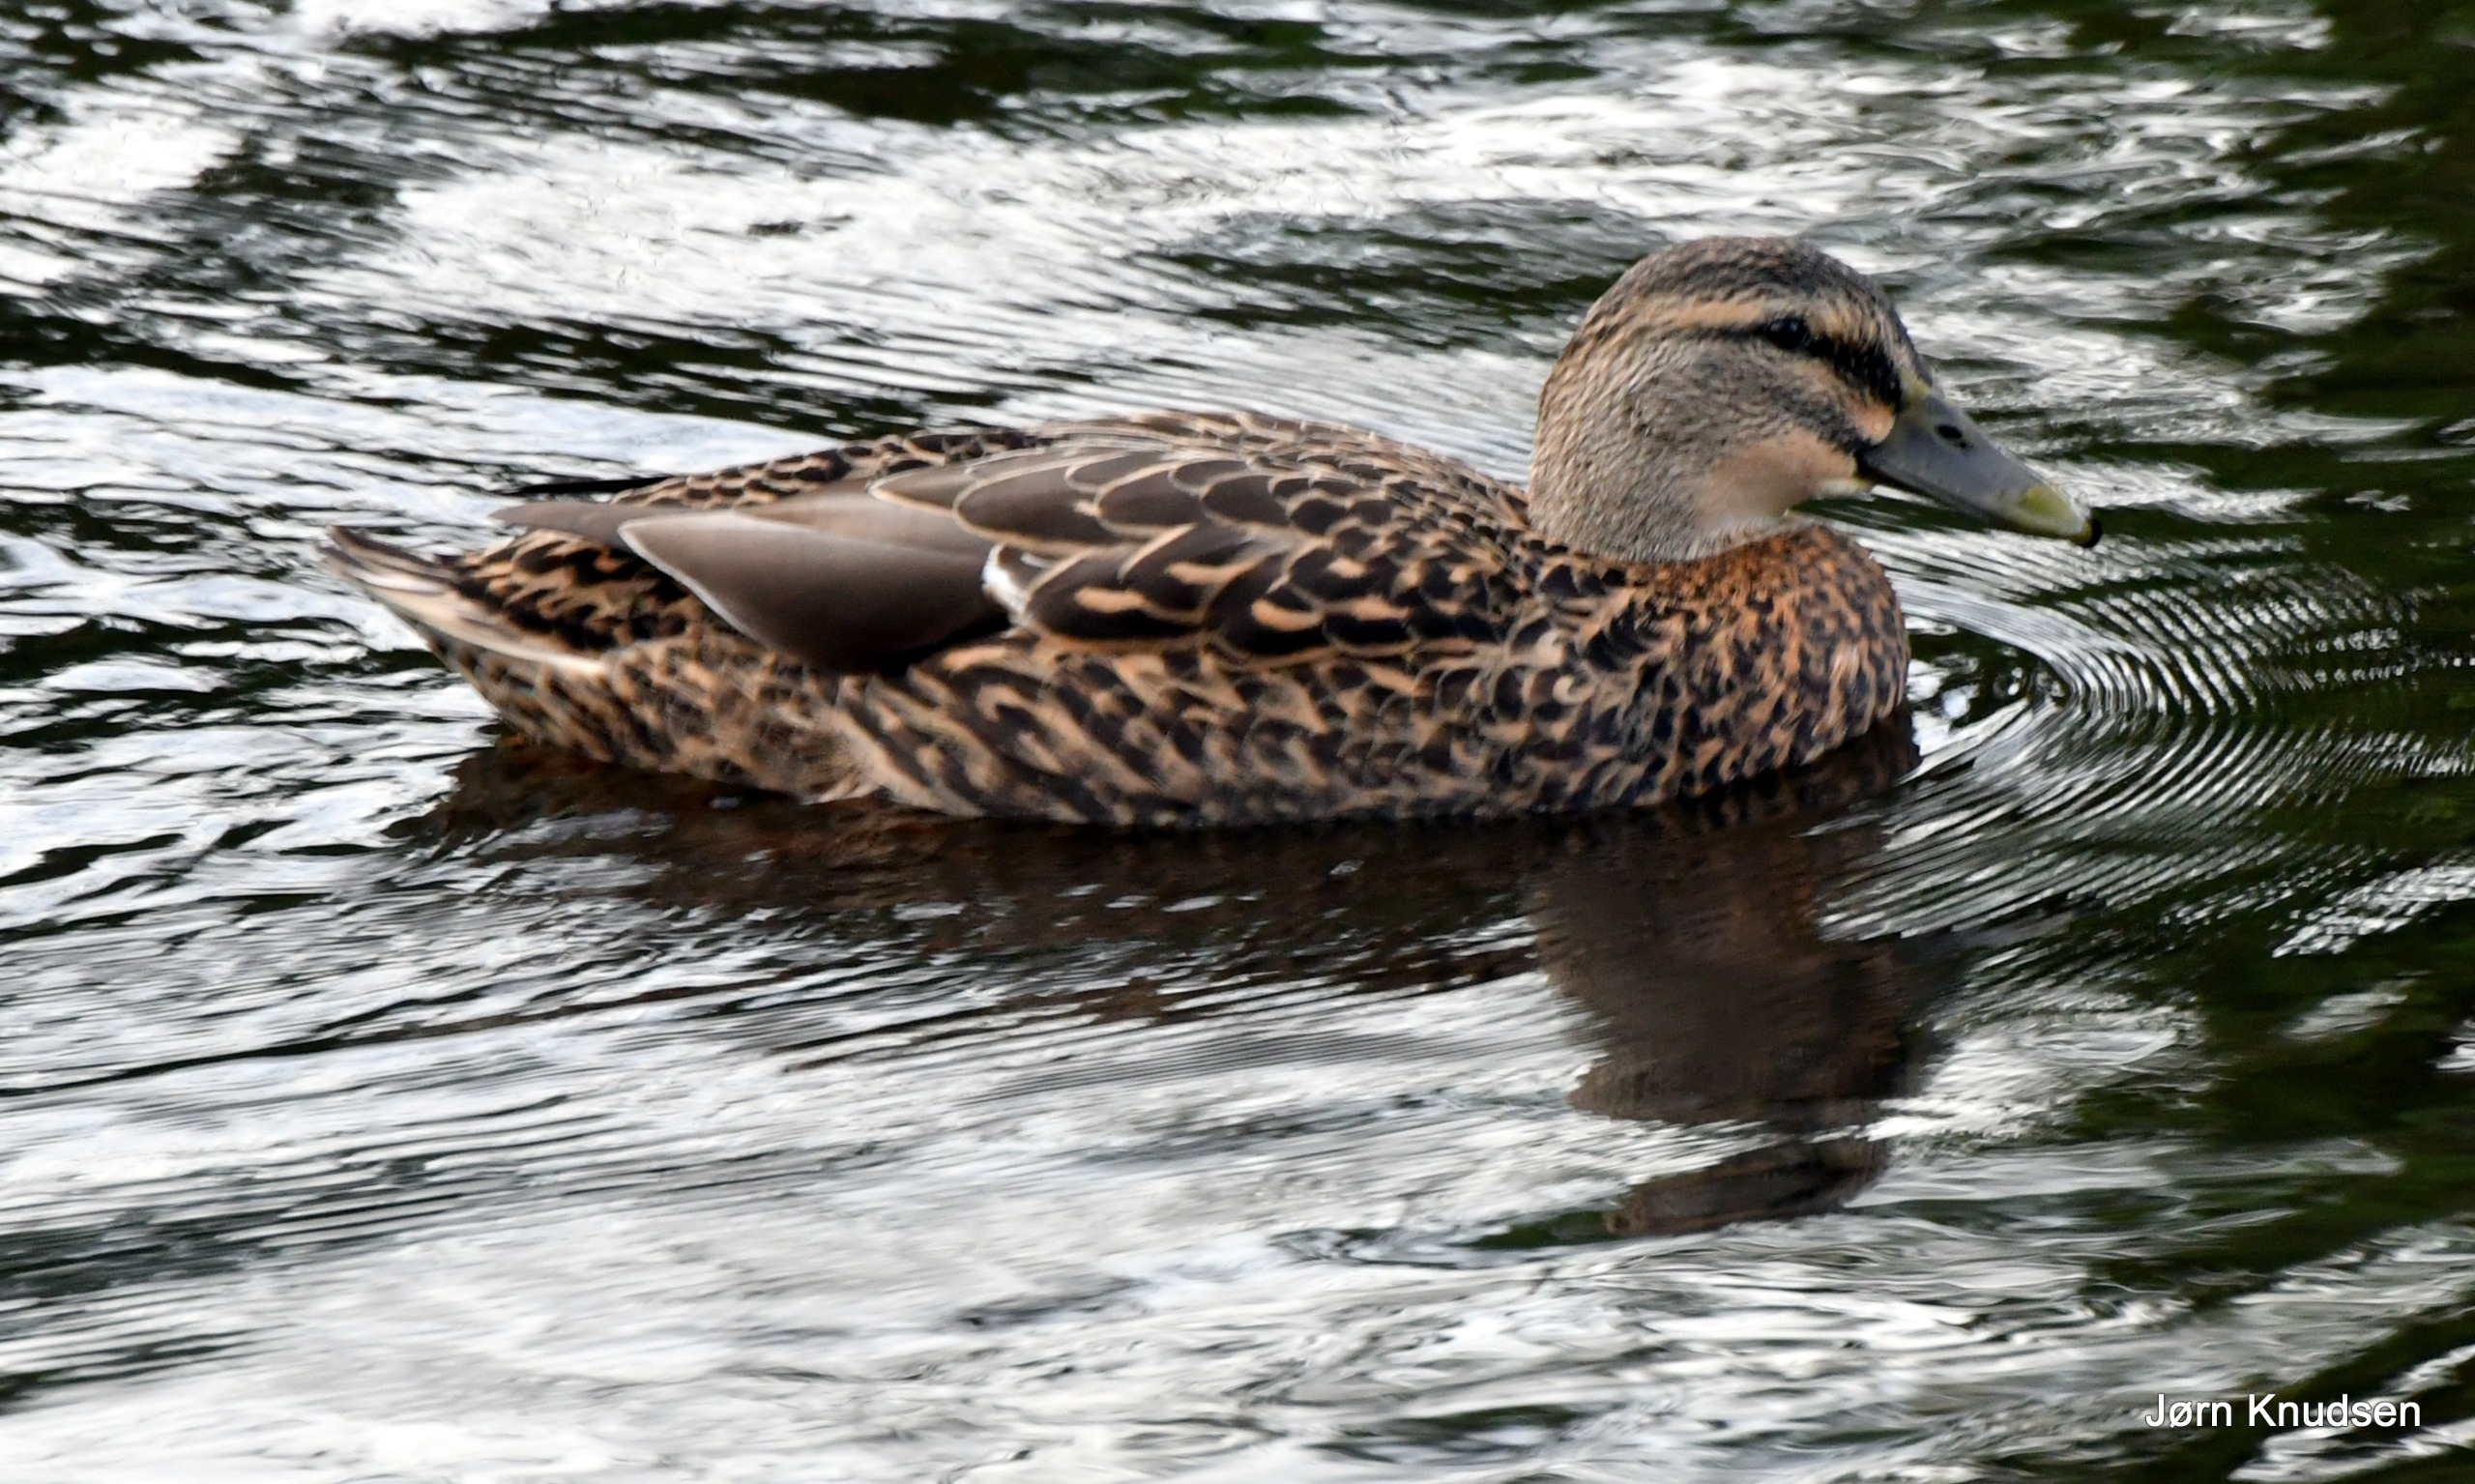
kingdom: Animalia
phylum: Chordata
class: Aves
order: Anseriformes
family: Anatidae
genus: Anas
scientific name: Anas platyrhynchos
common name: Gråand
